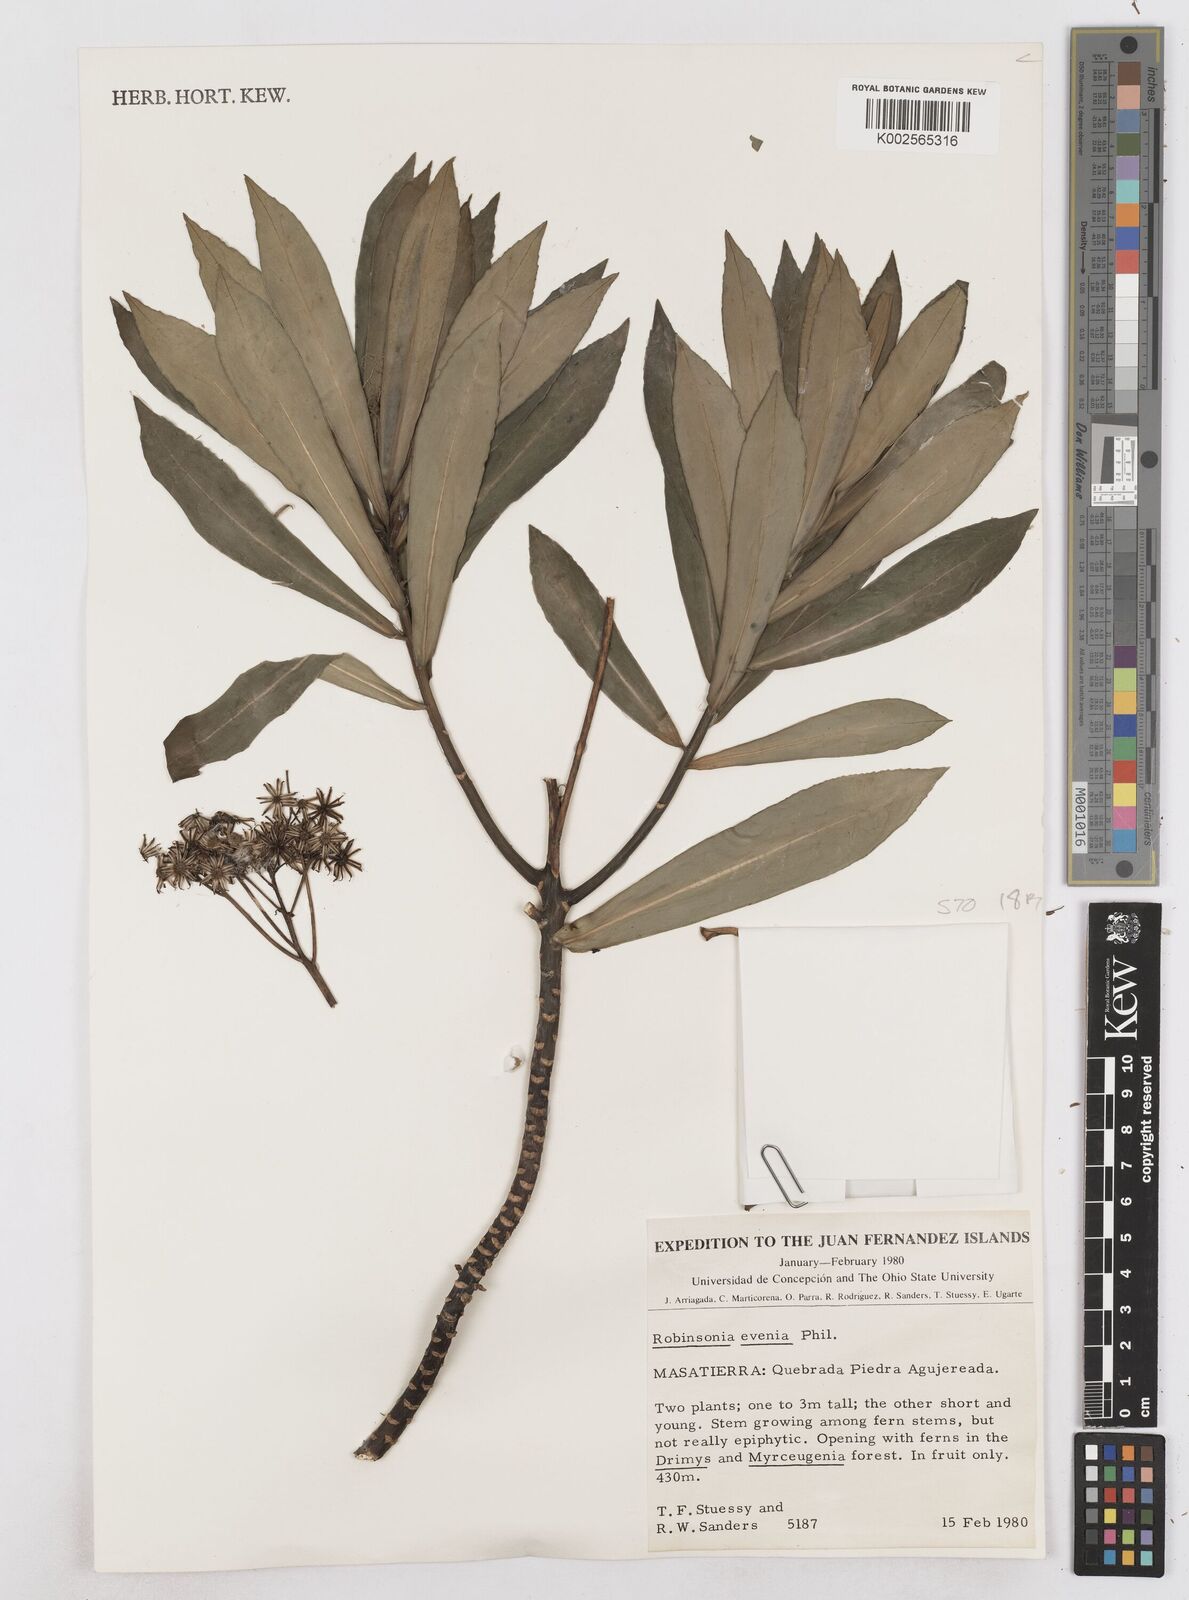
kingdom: Plantae
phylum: Tracheophyta
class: Magnoliopsida
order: Asterales
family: Asteraceae
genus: Robinsonia
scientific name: Robinsonia evenia
